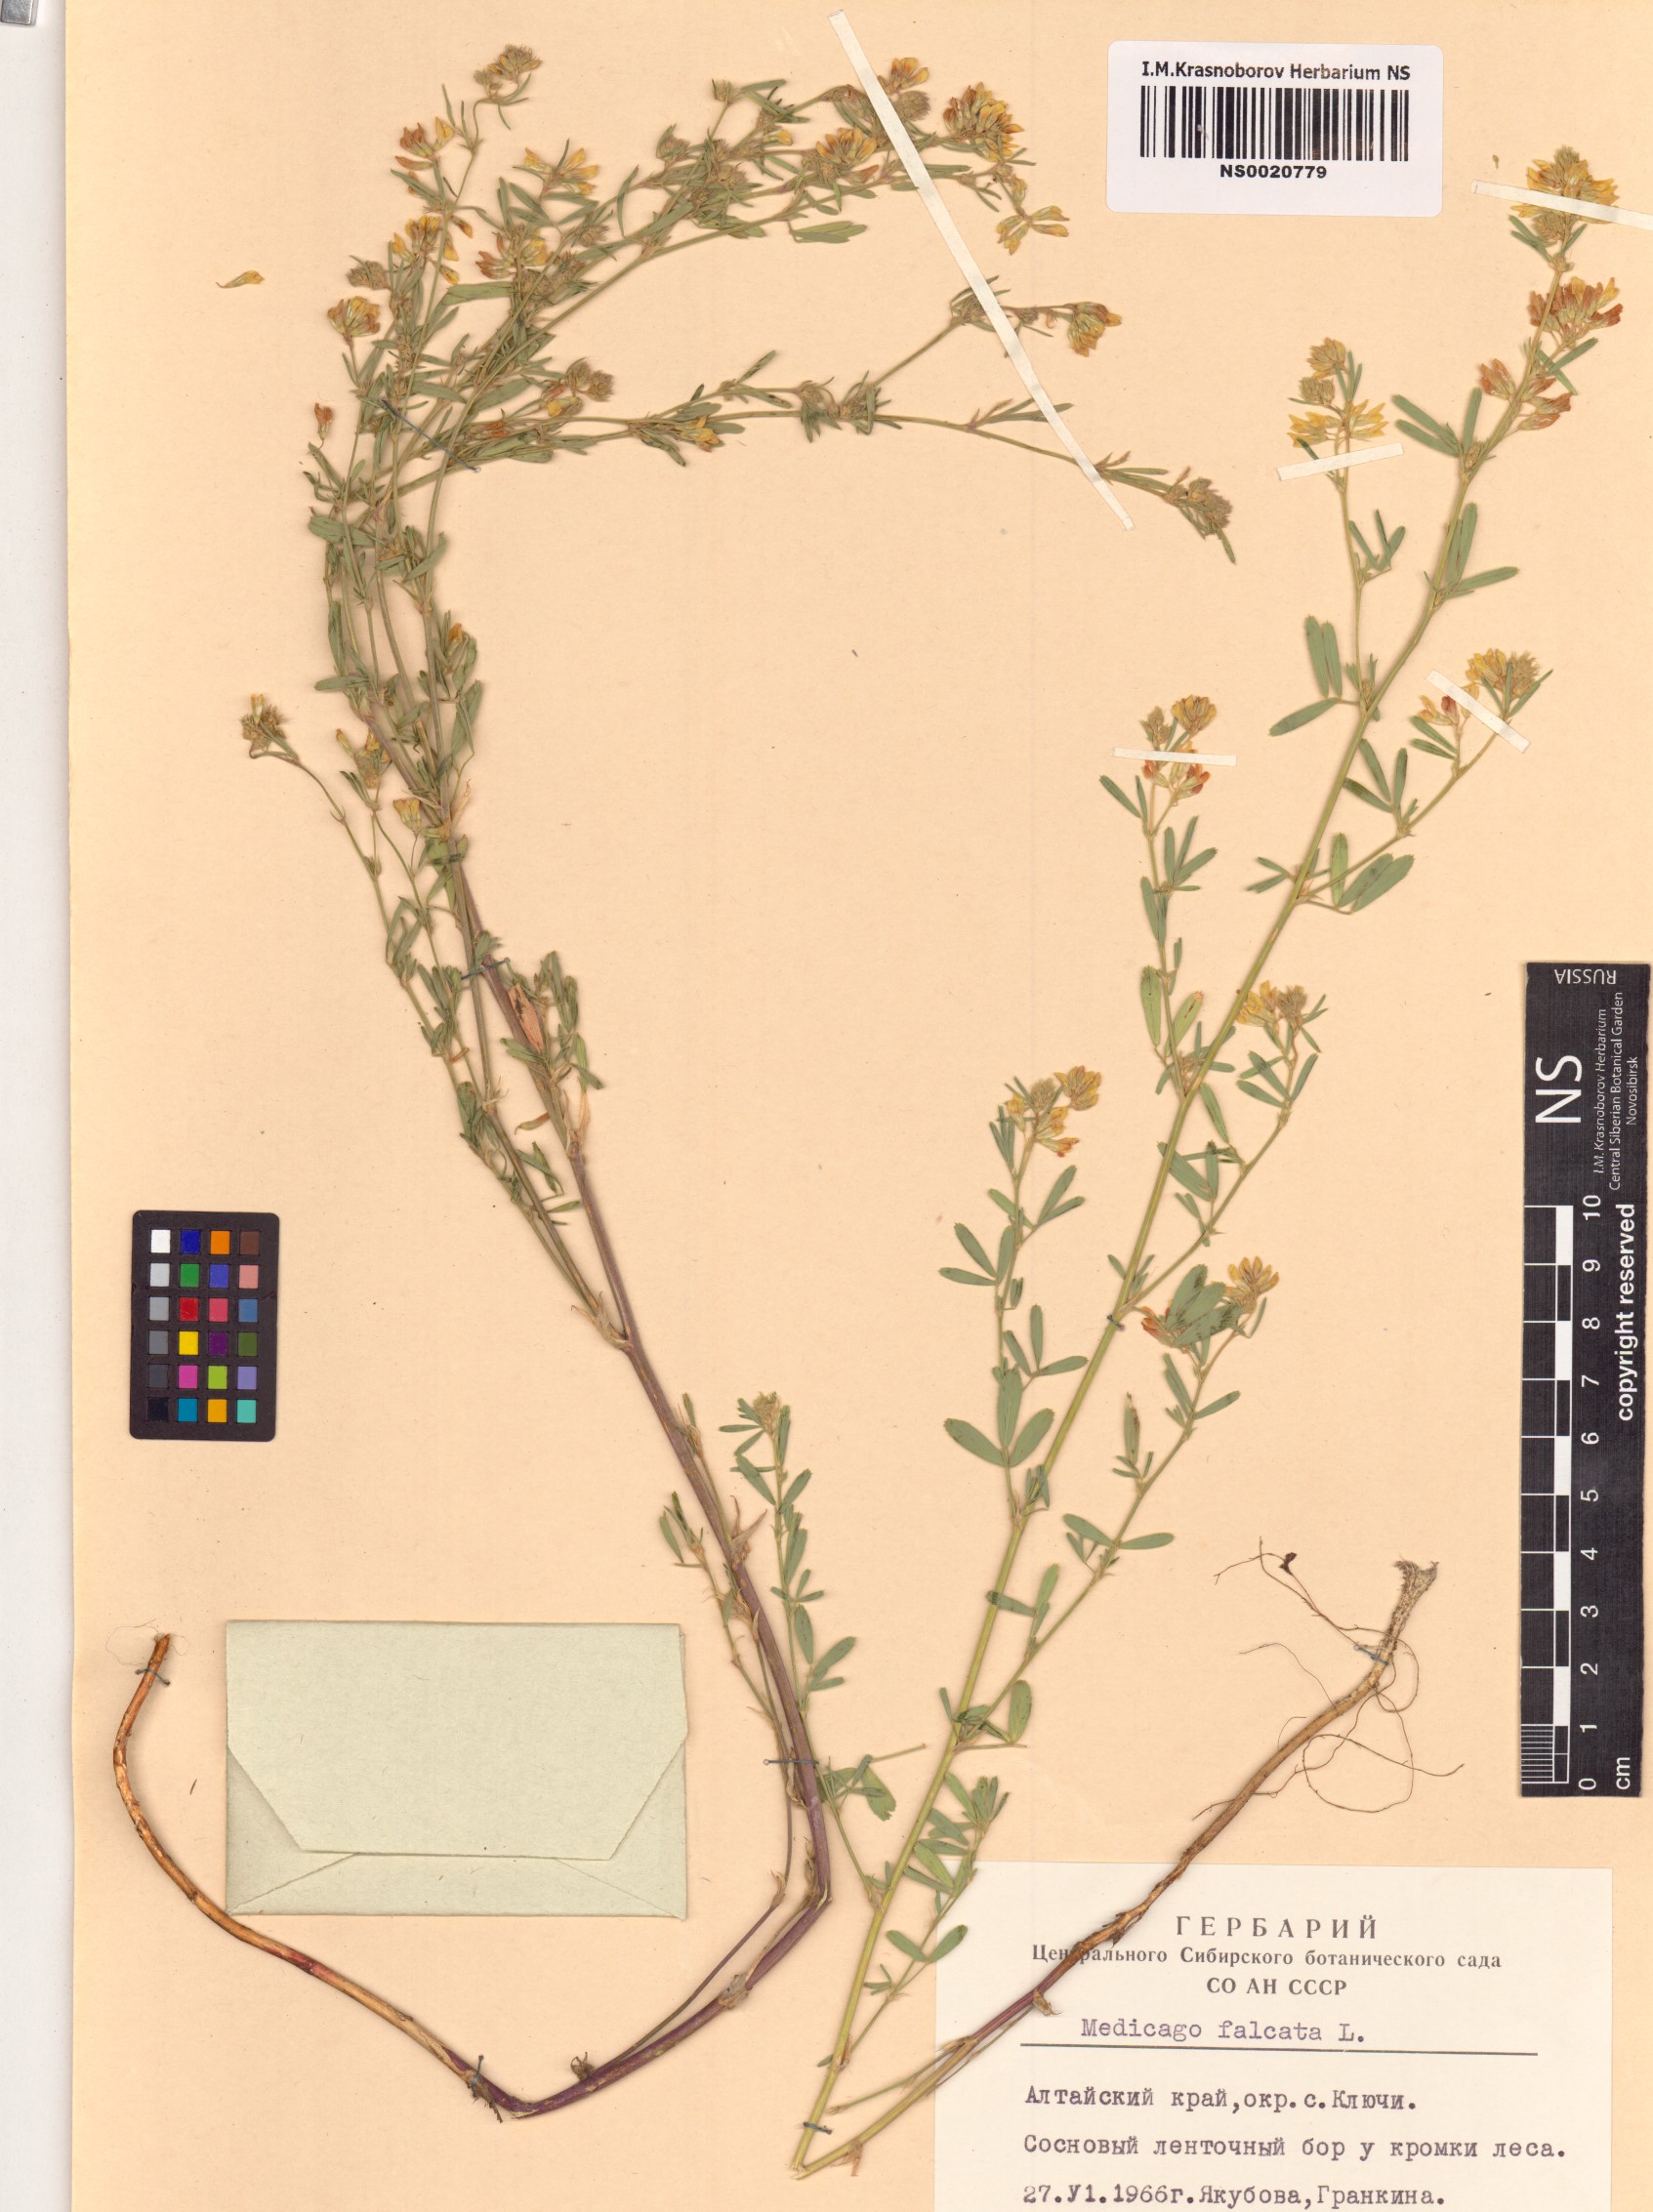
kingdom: Plantae
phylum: Tracheophyta
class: Magnoliopsida
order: Fabales
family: Fabaceae
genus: Medicago
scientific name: Medicago falcata
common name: Sickle medick
